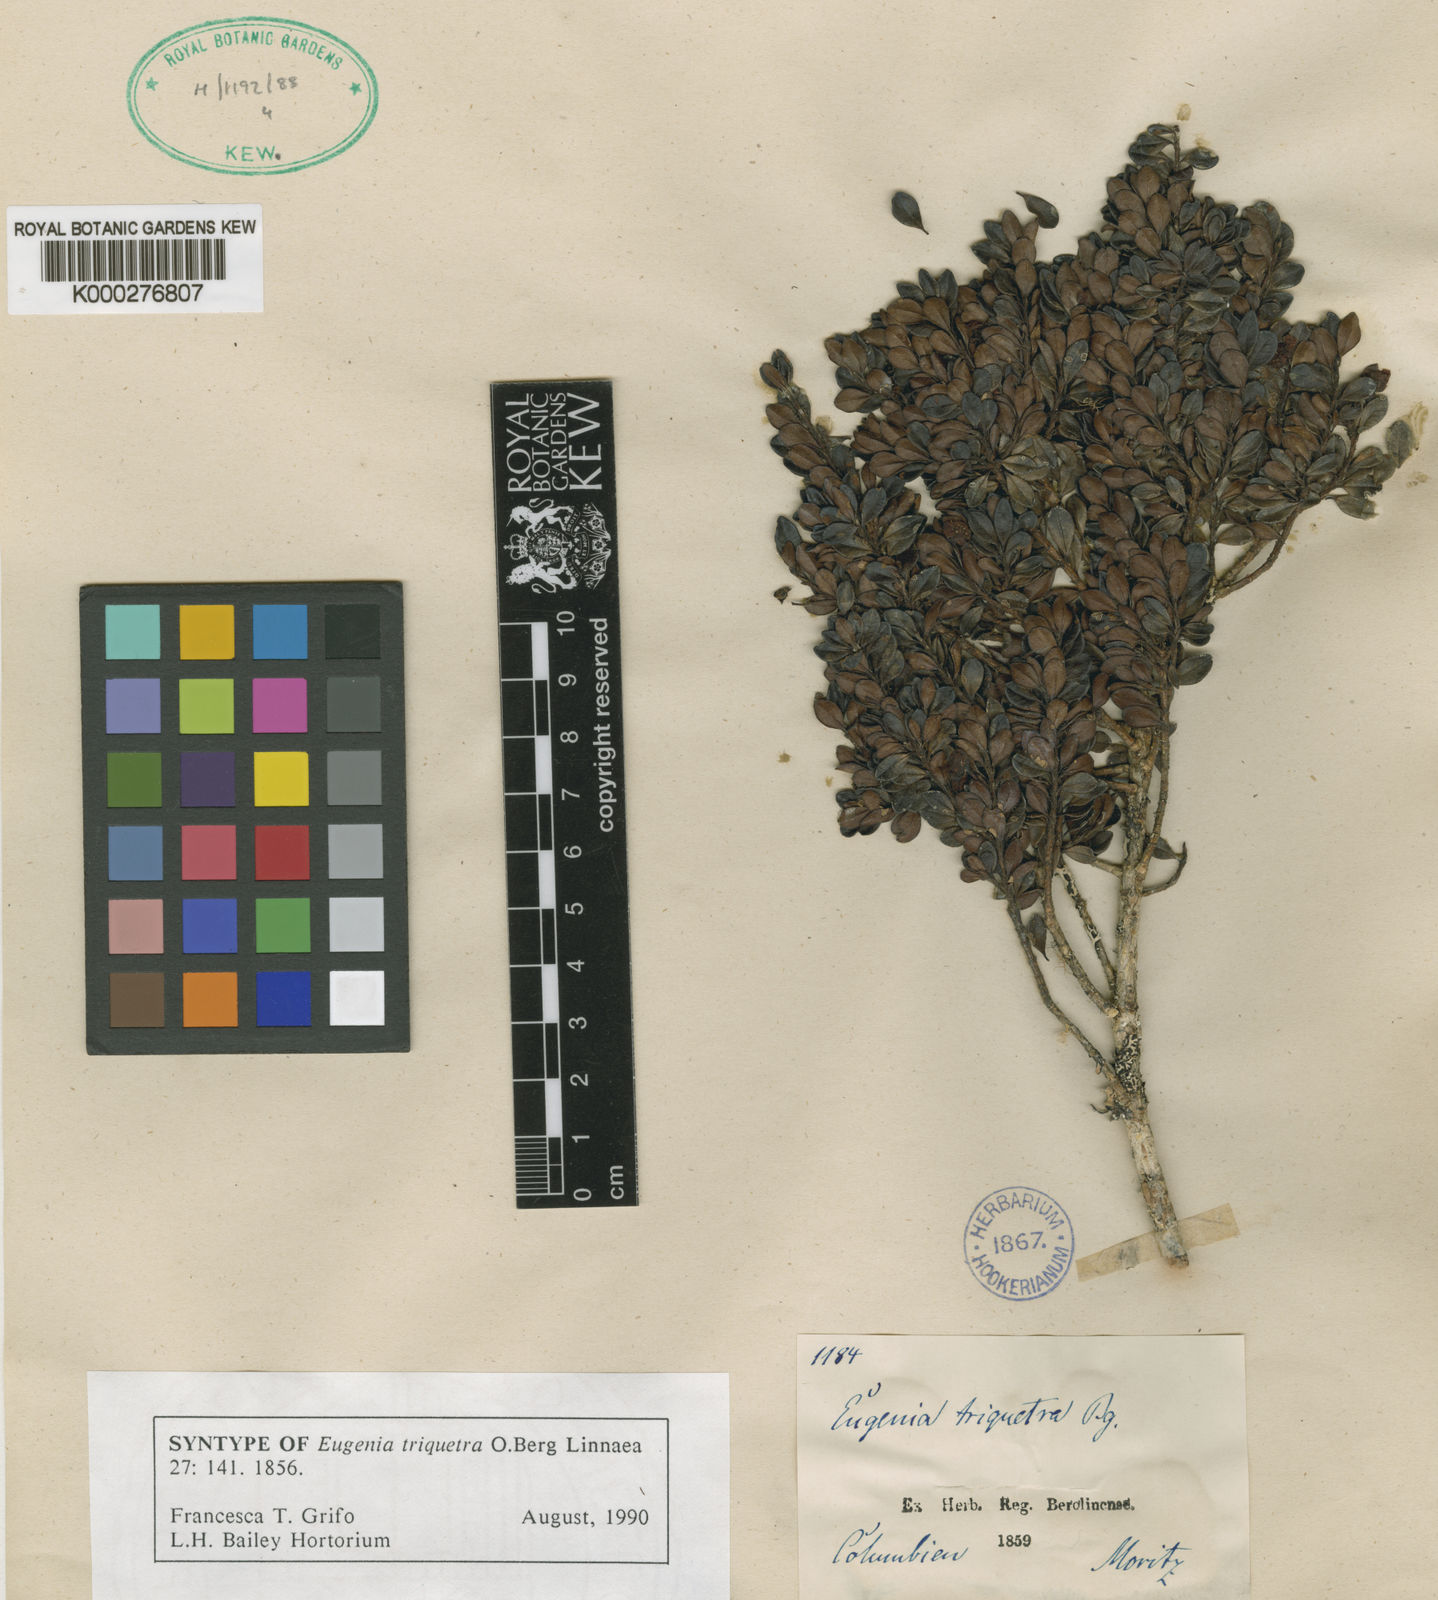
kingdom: Plantae
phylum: Tracheophyta
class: Magnoliopsida
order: Myrtales
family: Myrtaceae
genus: Myrcianthes
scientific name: Myrcianthes myrsinoides
